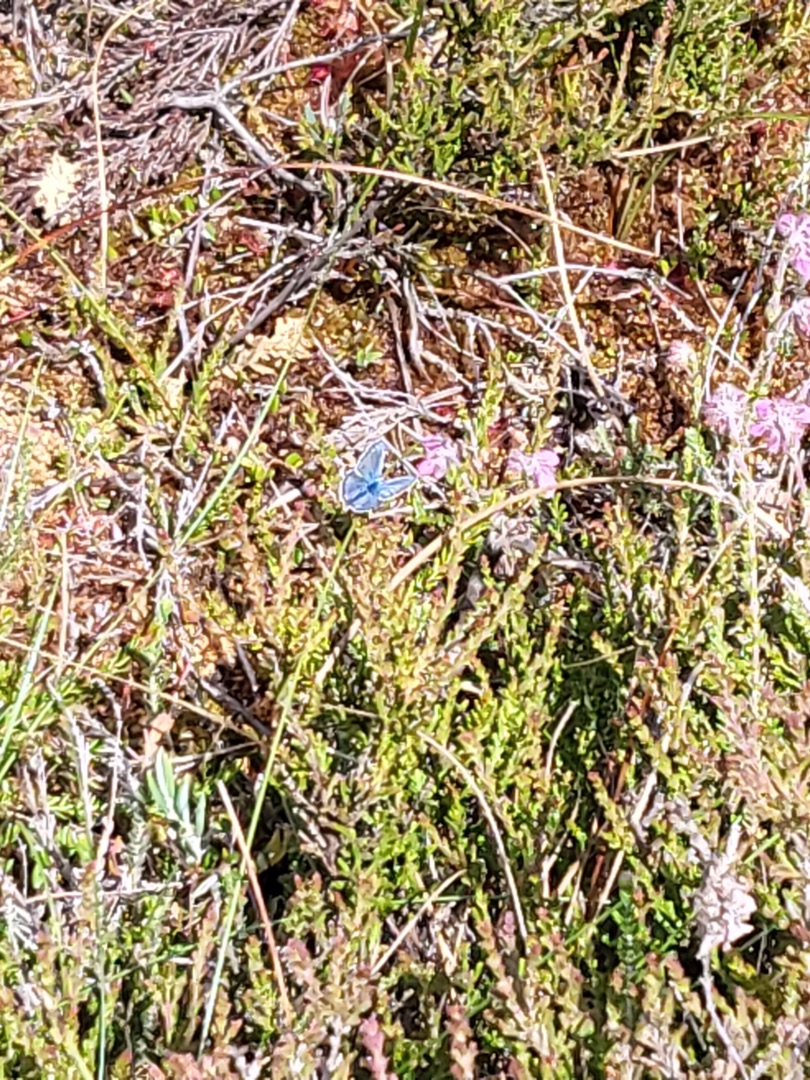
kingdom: Animalia
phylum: Arthropoda
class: Insecta
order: Lepidoptera
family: Lycaenidae
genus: Polyommatus
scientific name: Polyommatus icarus
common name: Almindelig blåfugl
